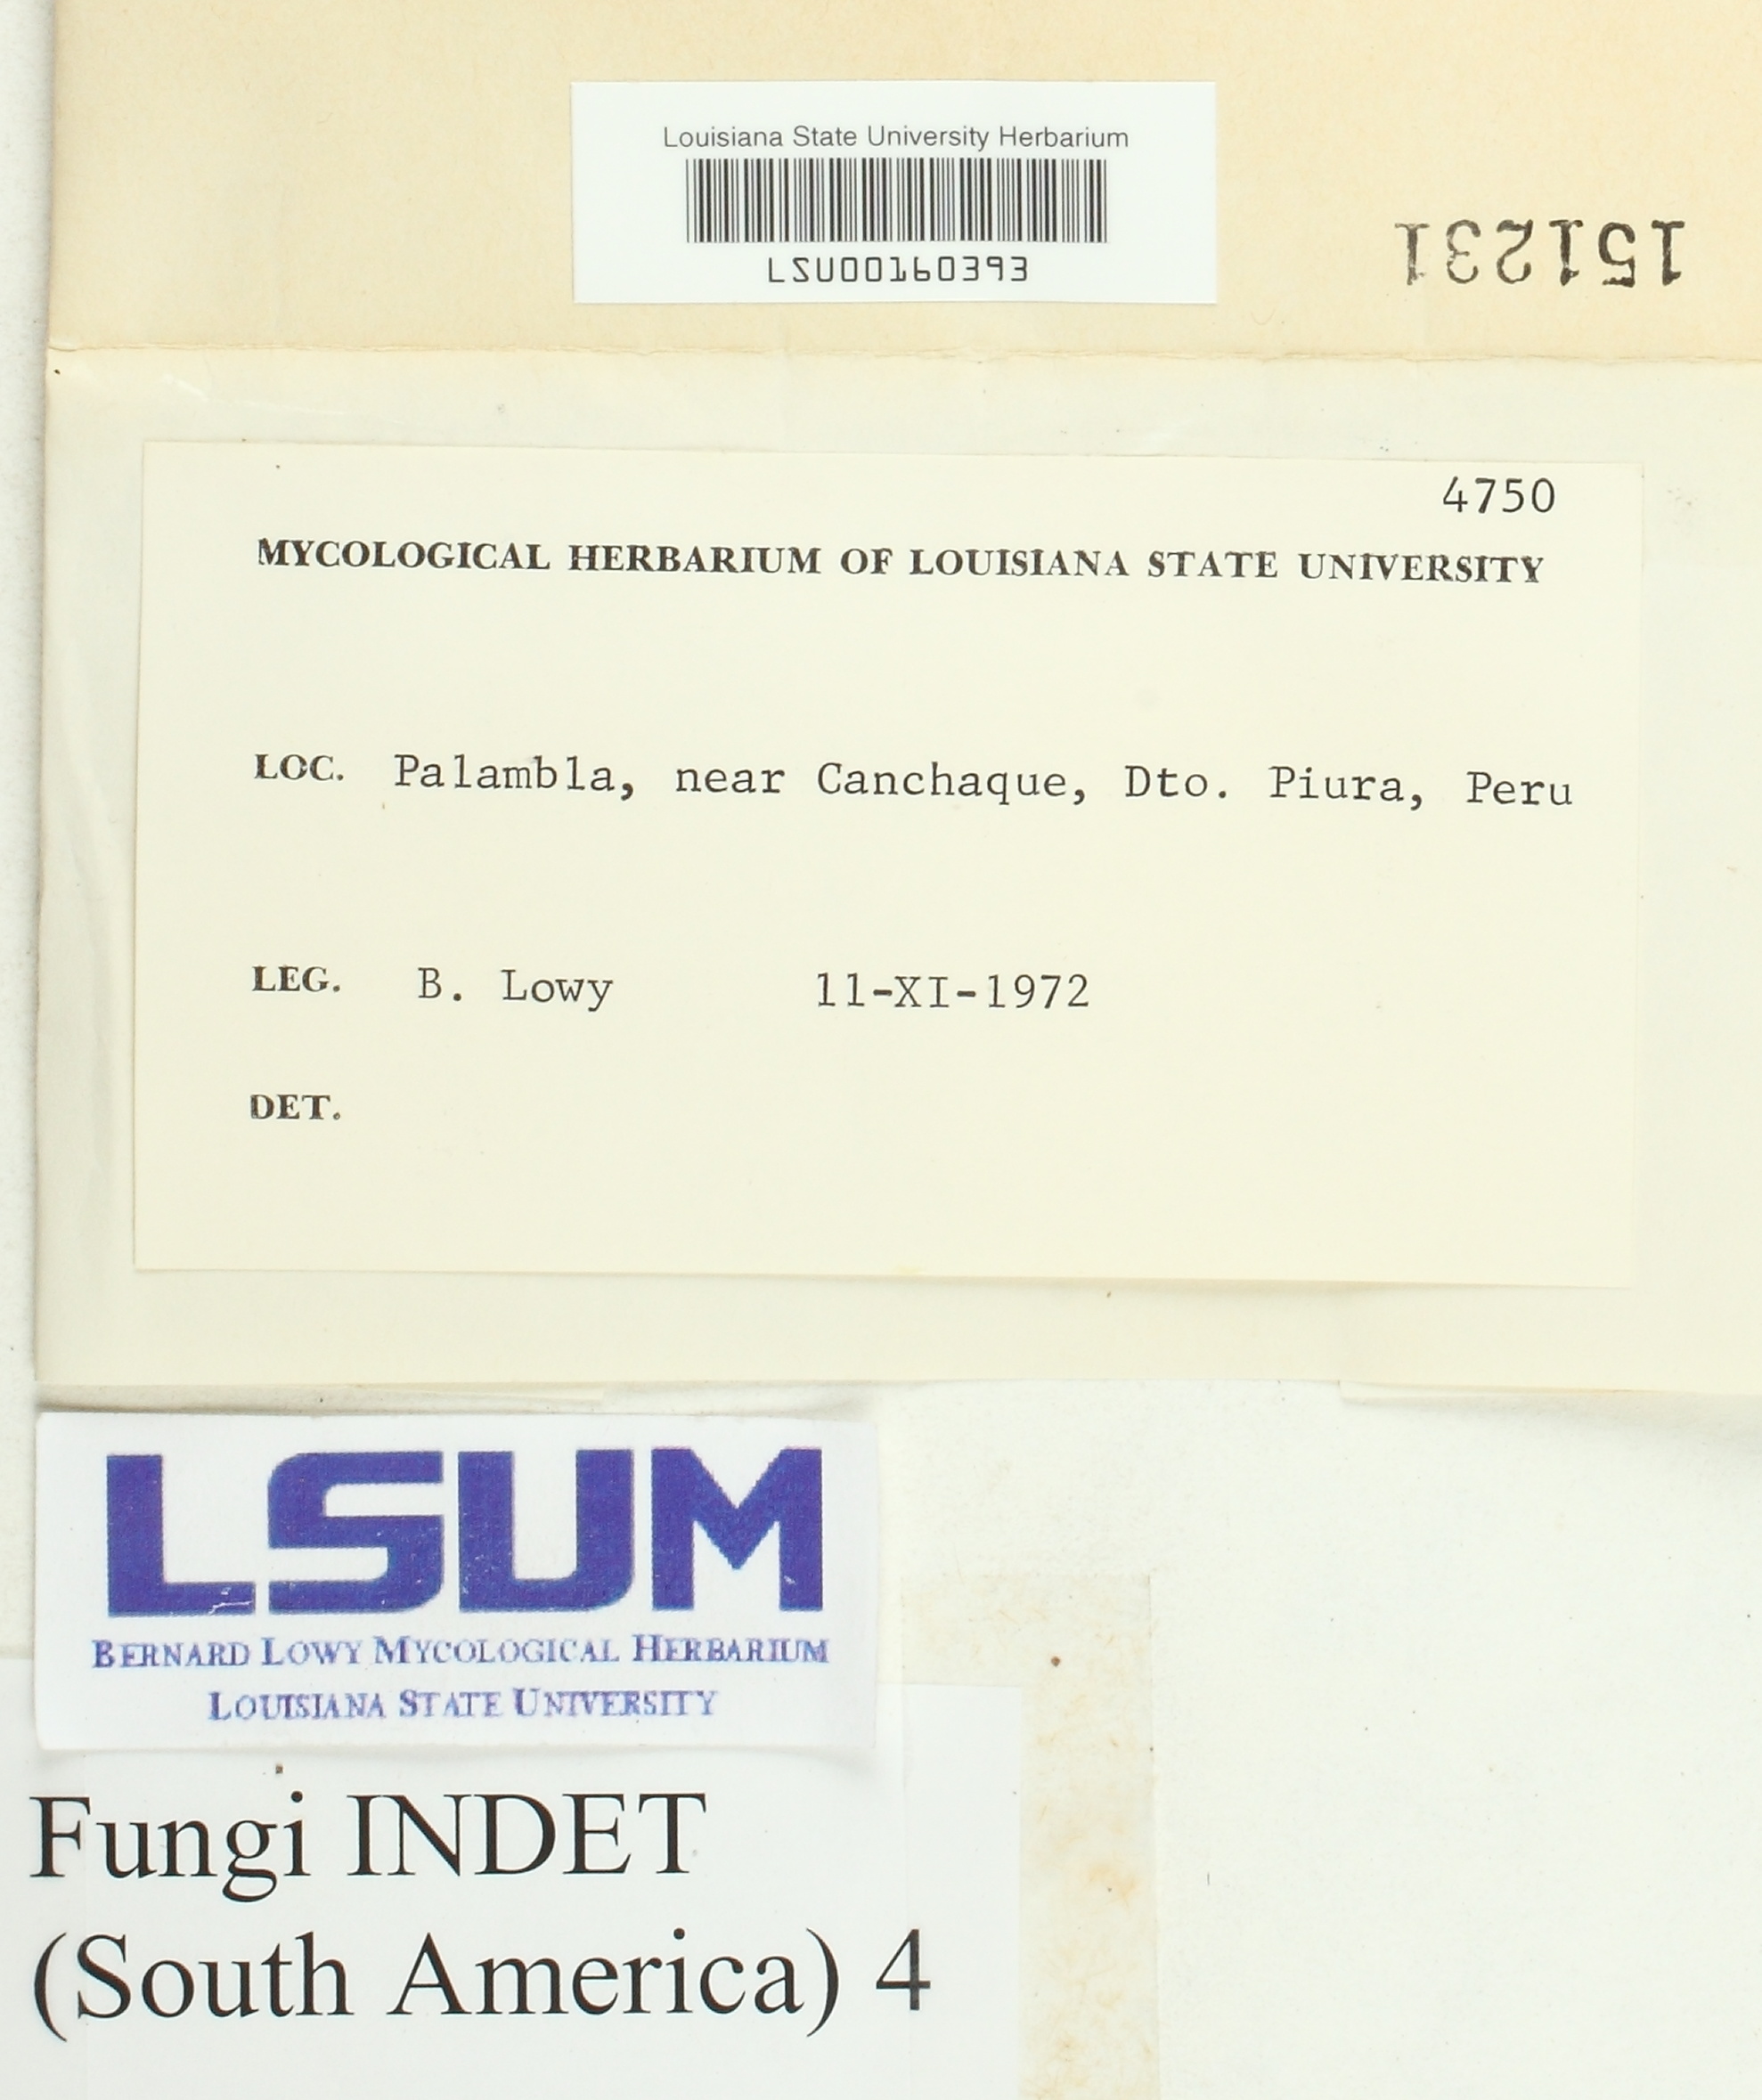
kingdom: Fungi
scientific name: Fungi
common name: Fungi
